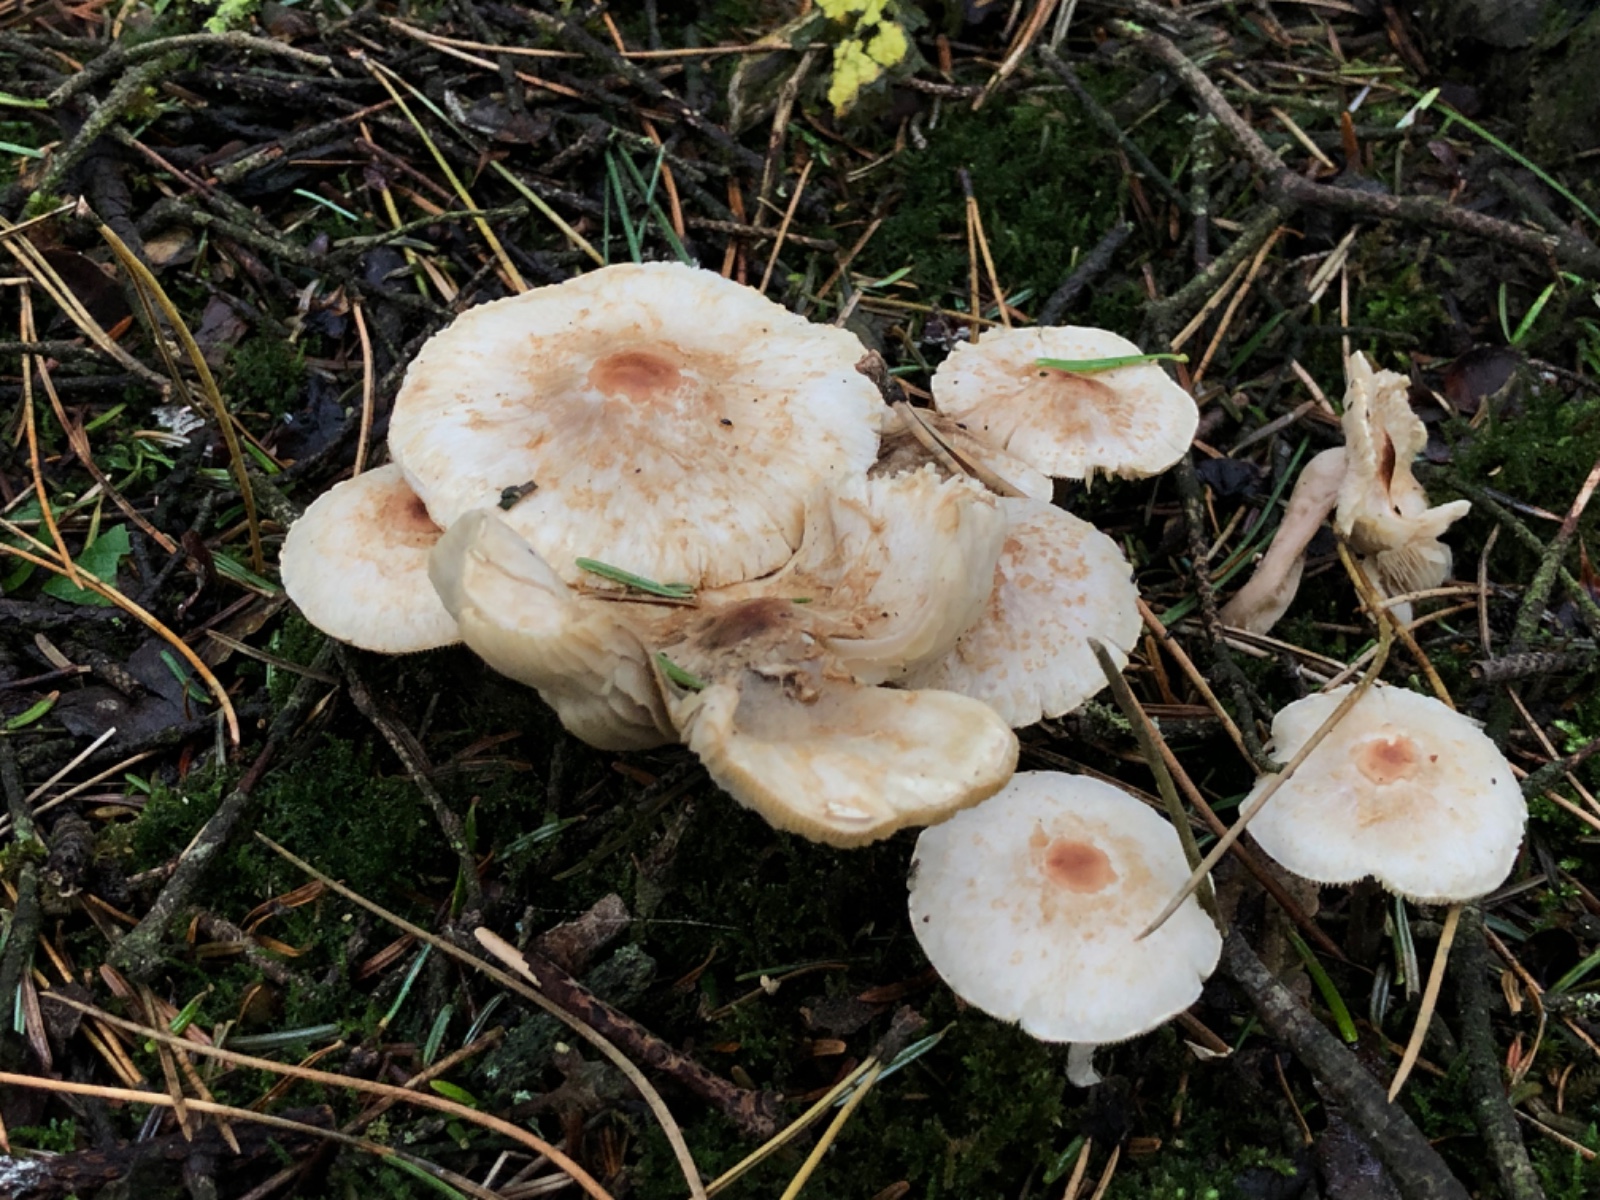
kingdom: Fungi
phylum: Basidiomycota
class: Agaricomycetes
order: Agaricales
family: Agaricaceae
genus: Lepiota
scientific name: Lepiota cristata
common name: stinkende parasolhat
